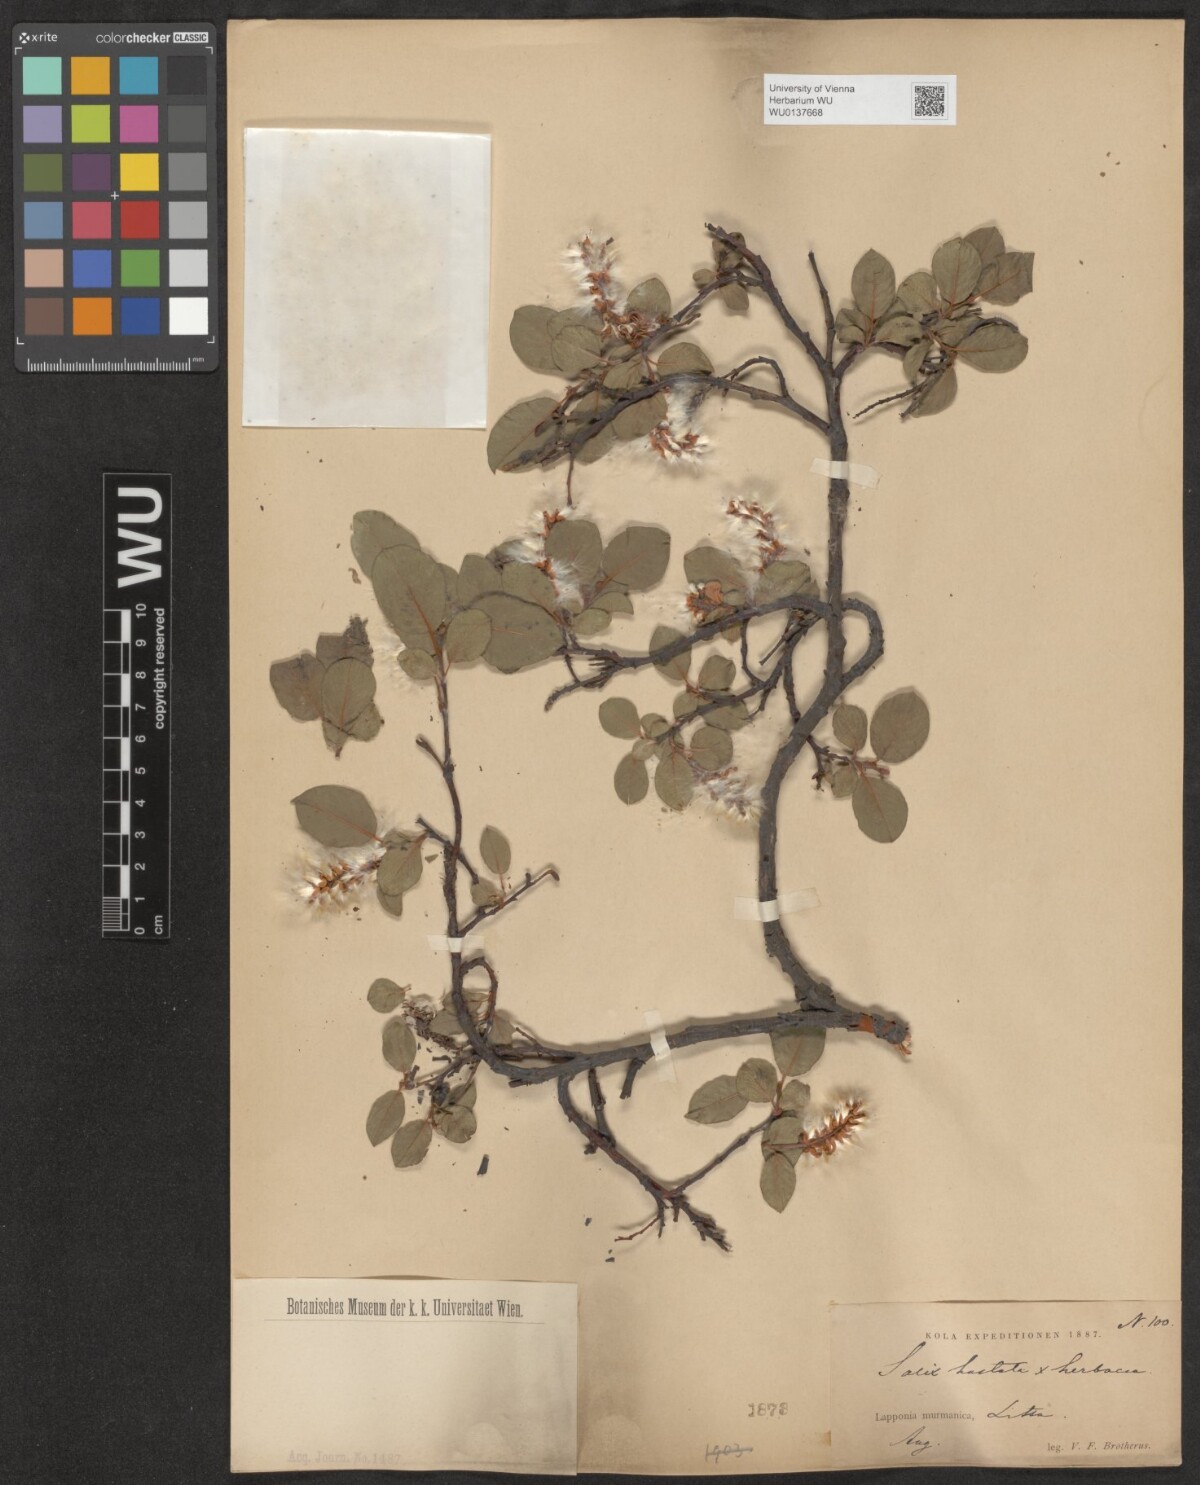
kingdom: Plantae
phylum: Tracheophyta
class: Magnoliopsida
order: Malpighiales
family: Salicaceae
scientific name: Salicaceae
